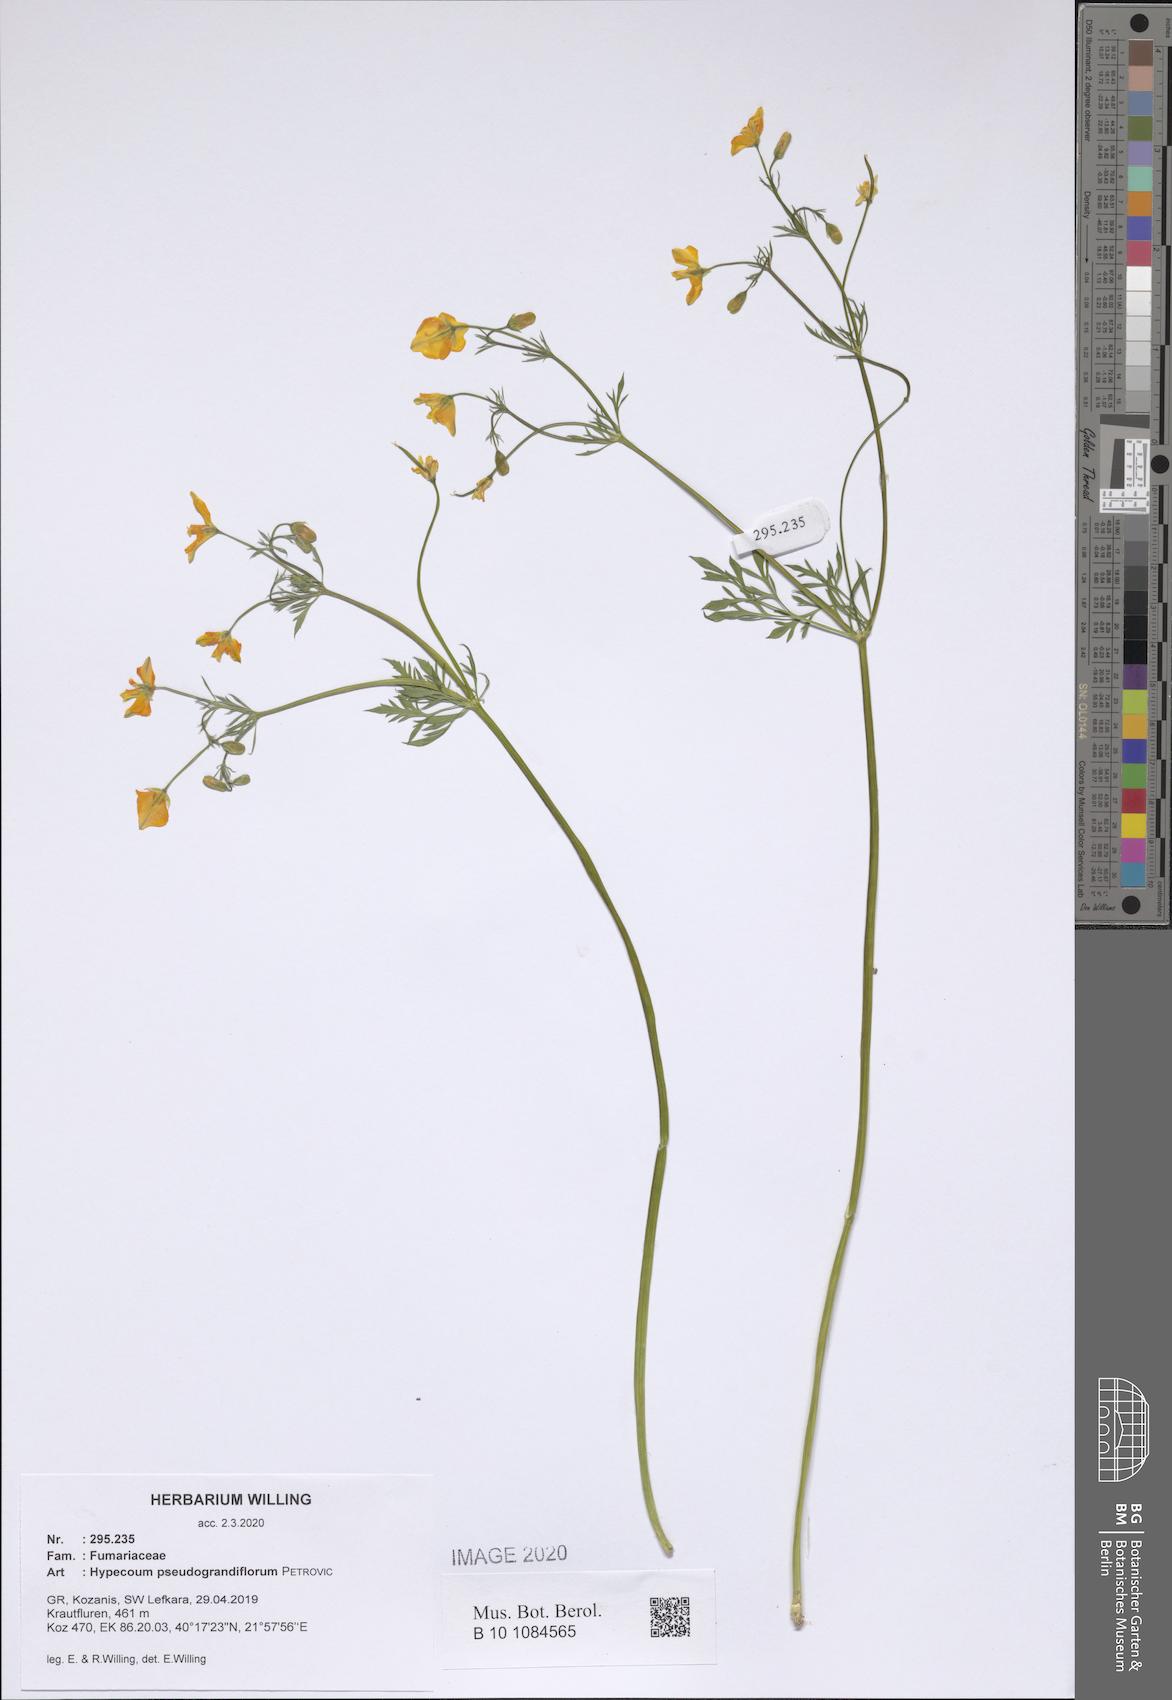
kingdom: Plantae
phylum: Tracheophyta
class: Magnoliopsida
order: Ranunculales
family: Papaveraceae
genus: Hypecoum
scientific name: Hypecoum pseudograndiflorum
